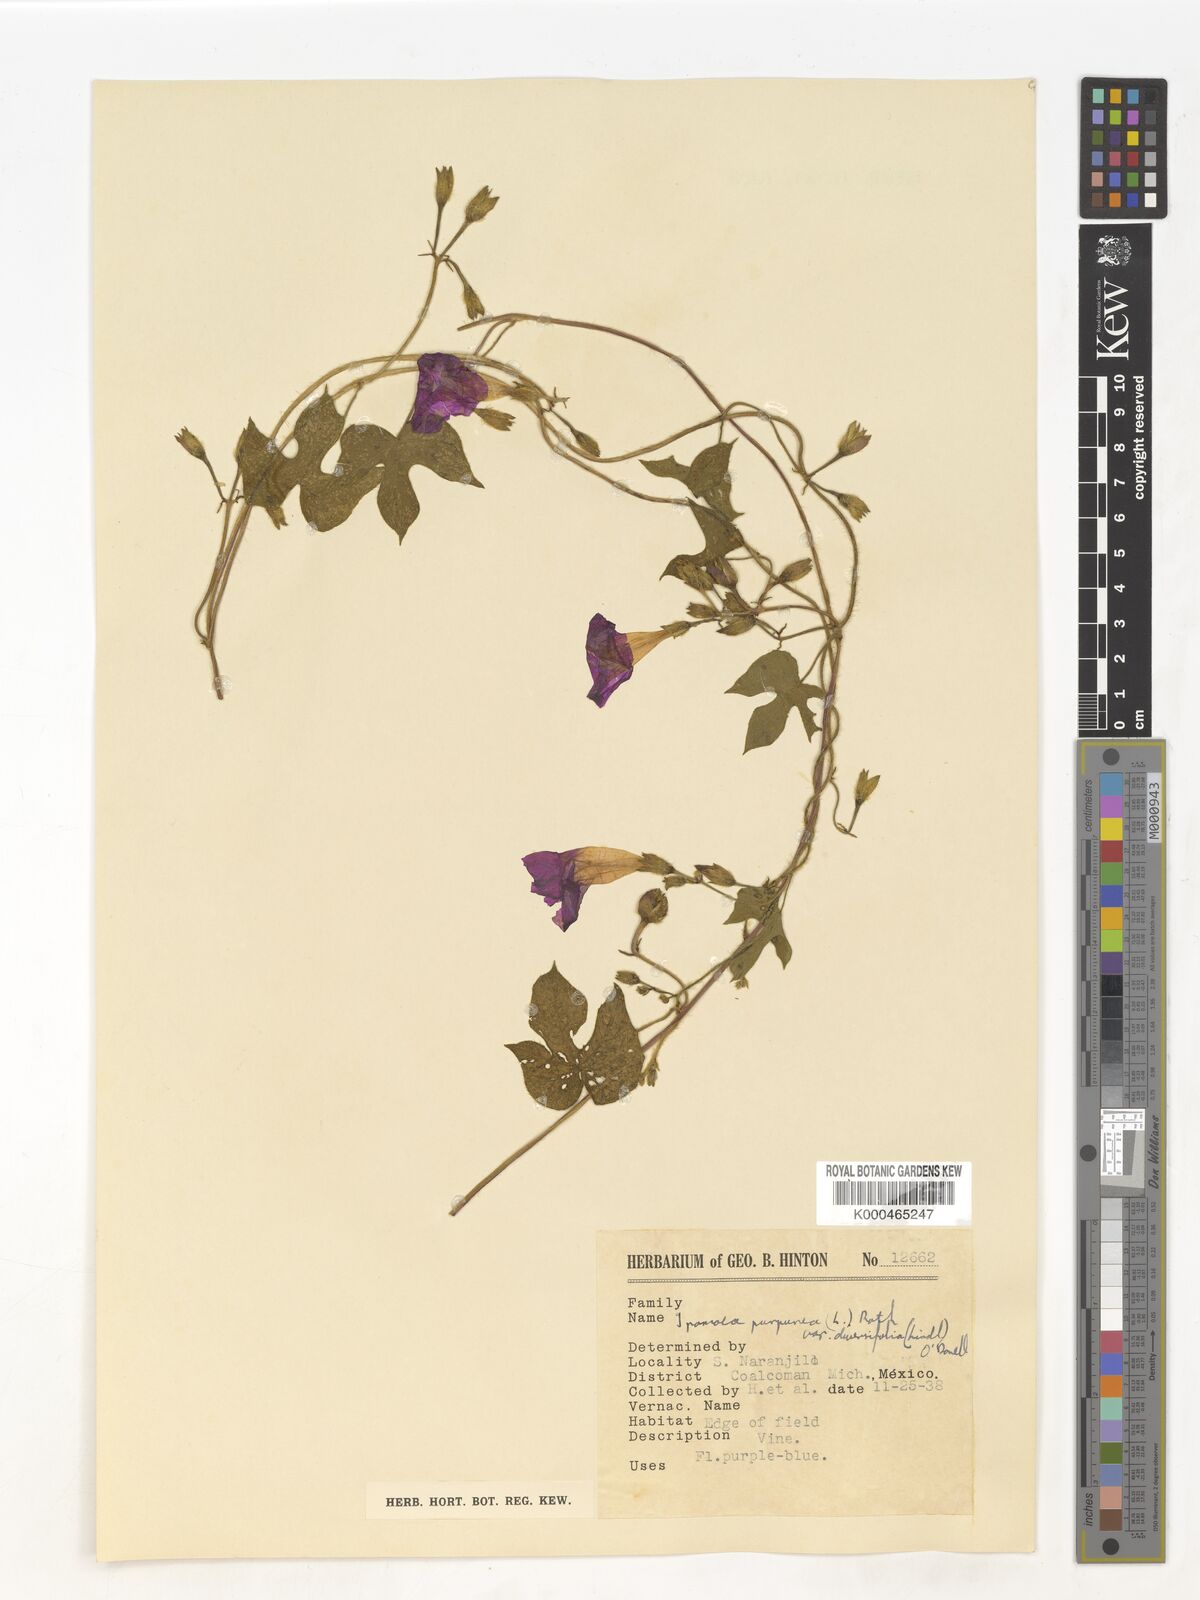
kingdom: Plantae
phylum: Tracheophyta
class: Magnoliopsida
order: Solanales
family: Convolvulaceae
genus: Ipomoea
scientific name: Ipomoea purpurea
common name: Common morning-glory
